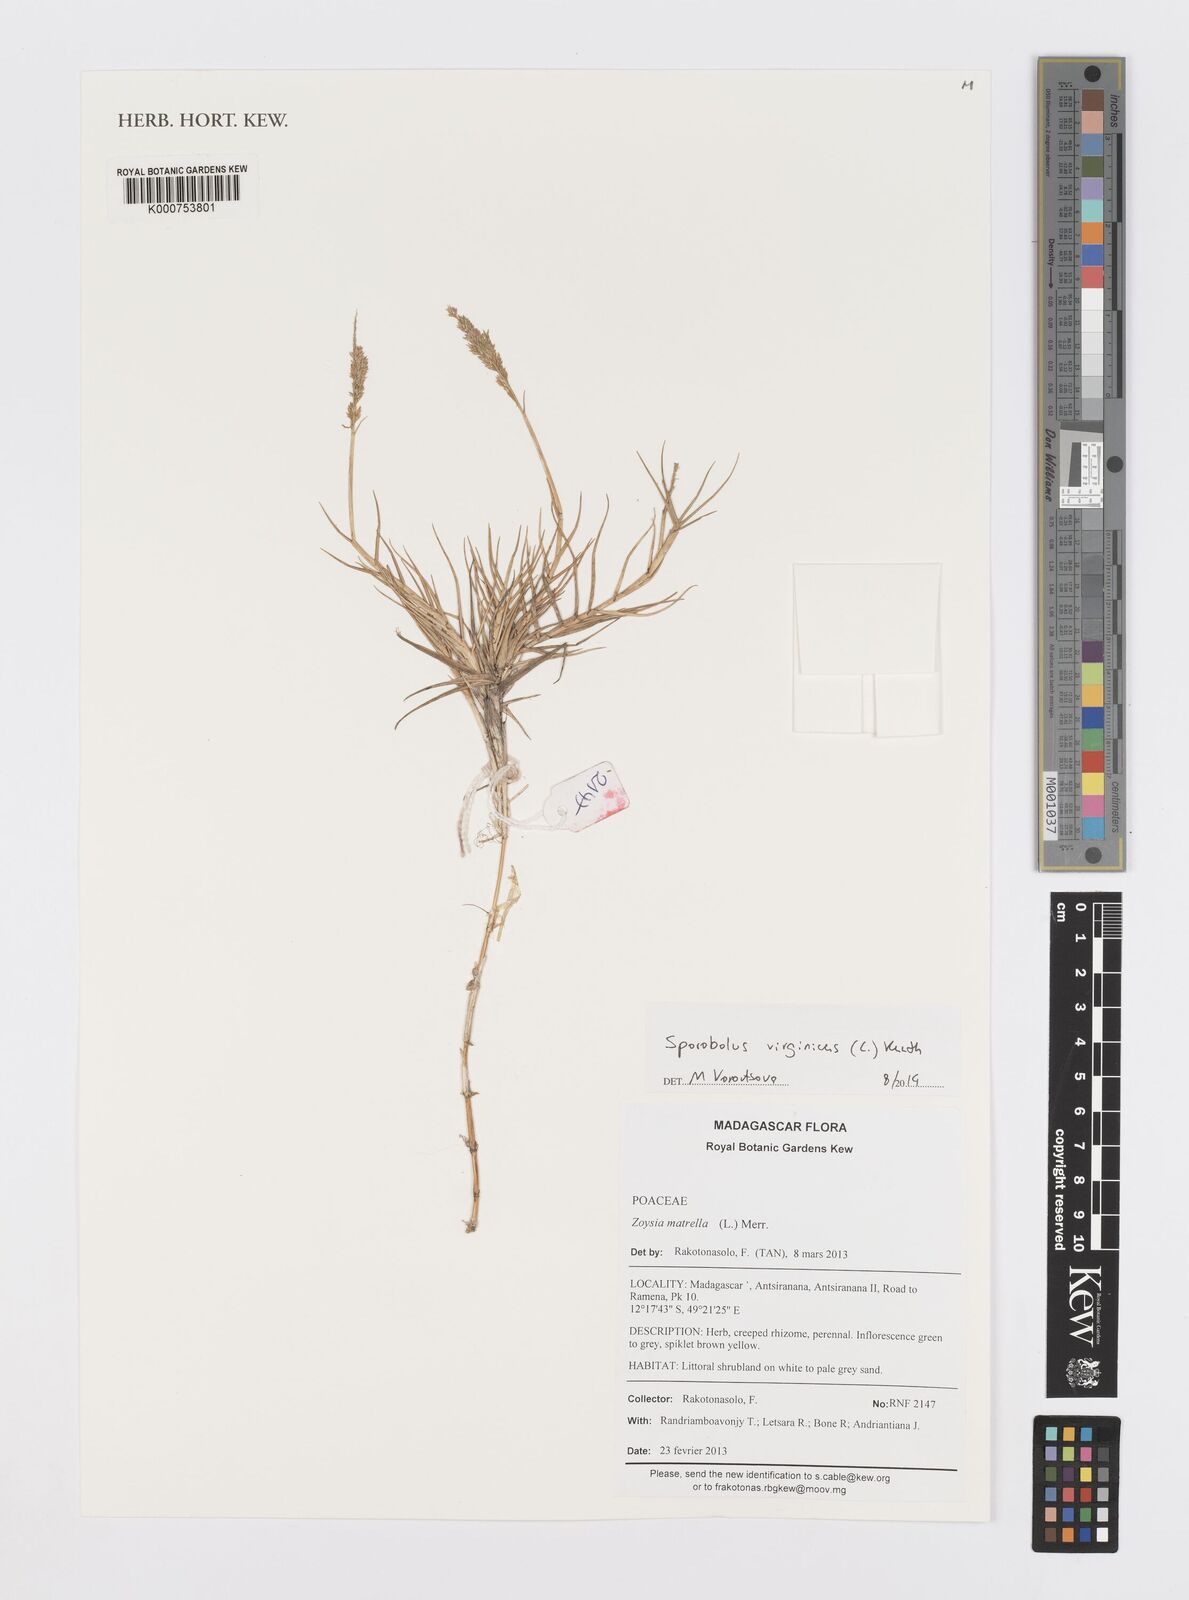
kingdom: Plantae
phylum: Tracheophyta
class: Liliopsida
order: Poales
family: Poaceae
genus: Sporobolus
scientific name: Sporobolus virginicus
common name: Beach dropseed
